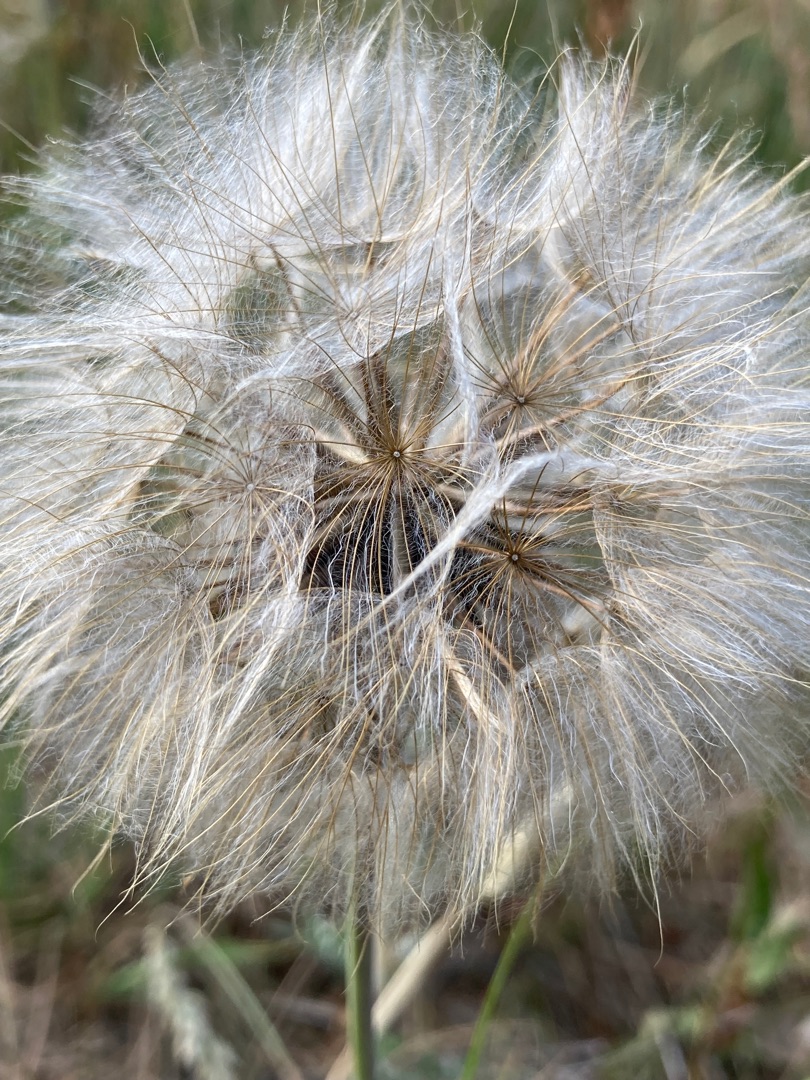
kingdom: Plantae
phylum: Tracheophyta
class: Magnoliopsida
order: Asterales
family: Asteraceae
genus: Tragopogon
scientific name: Tragopogon pratensis
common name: Gedeskæg
